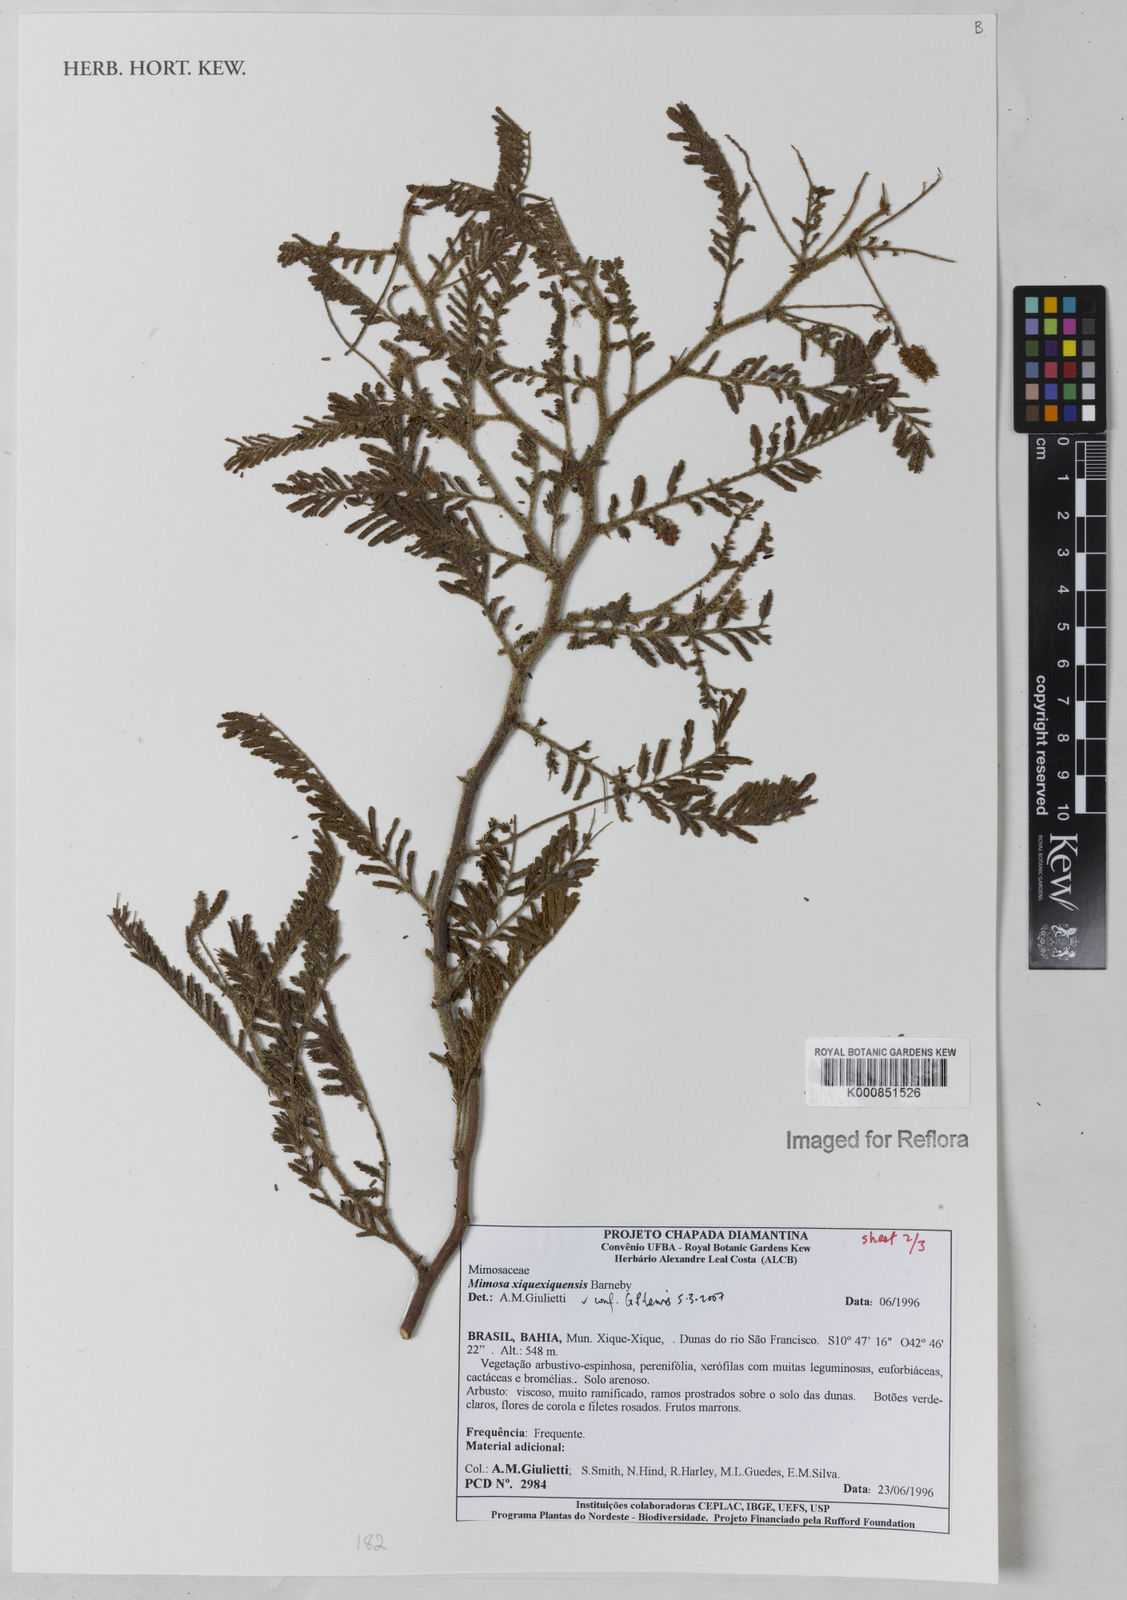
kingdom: Plantae
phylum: Tracheophyta
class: Magnoliopsida
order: Fabales
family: Fabaceae
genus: Mimosa
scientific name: Mimosa xiquexiquensis
